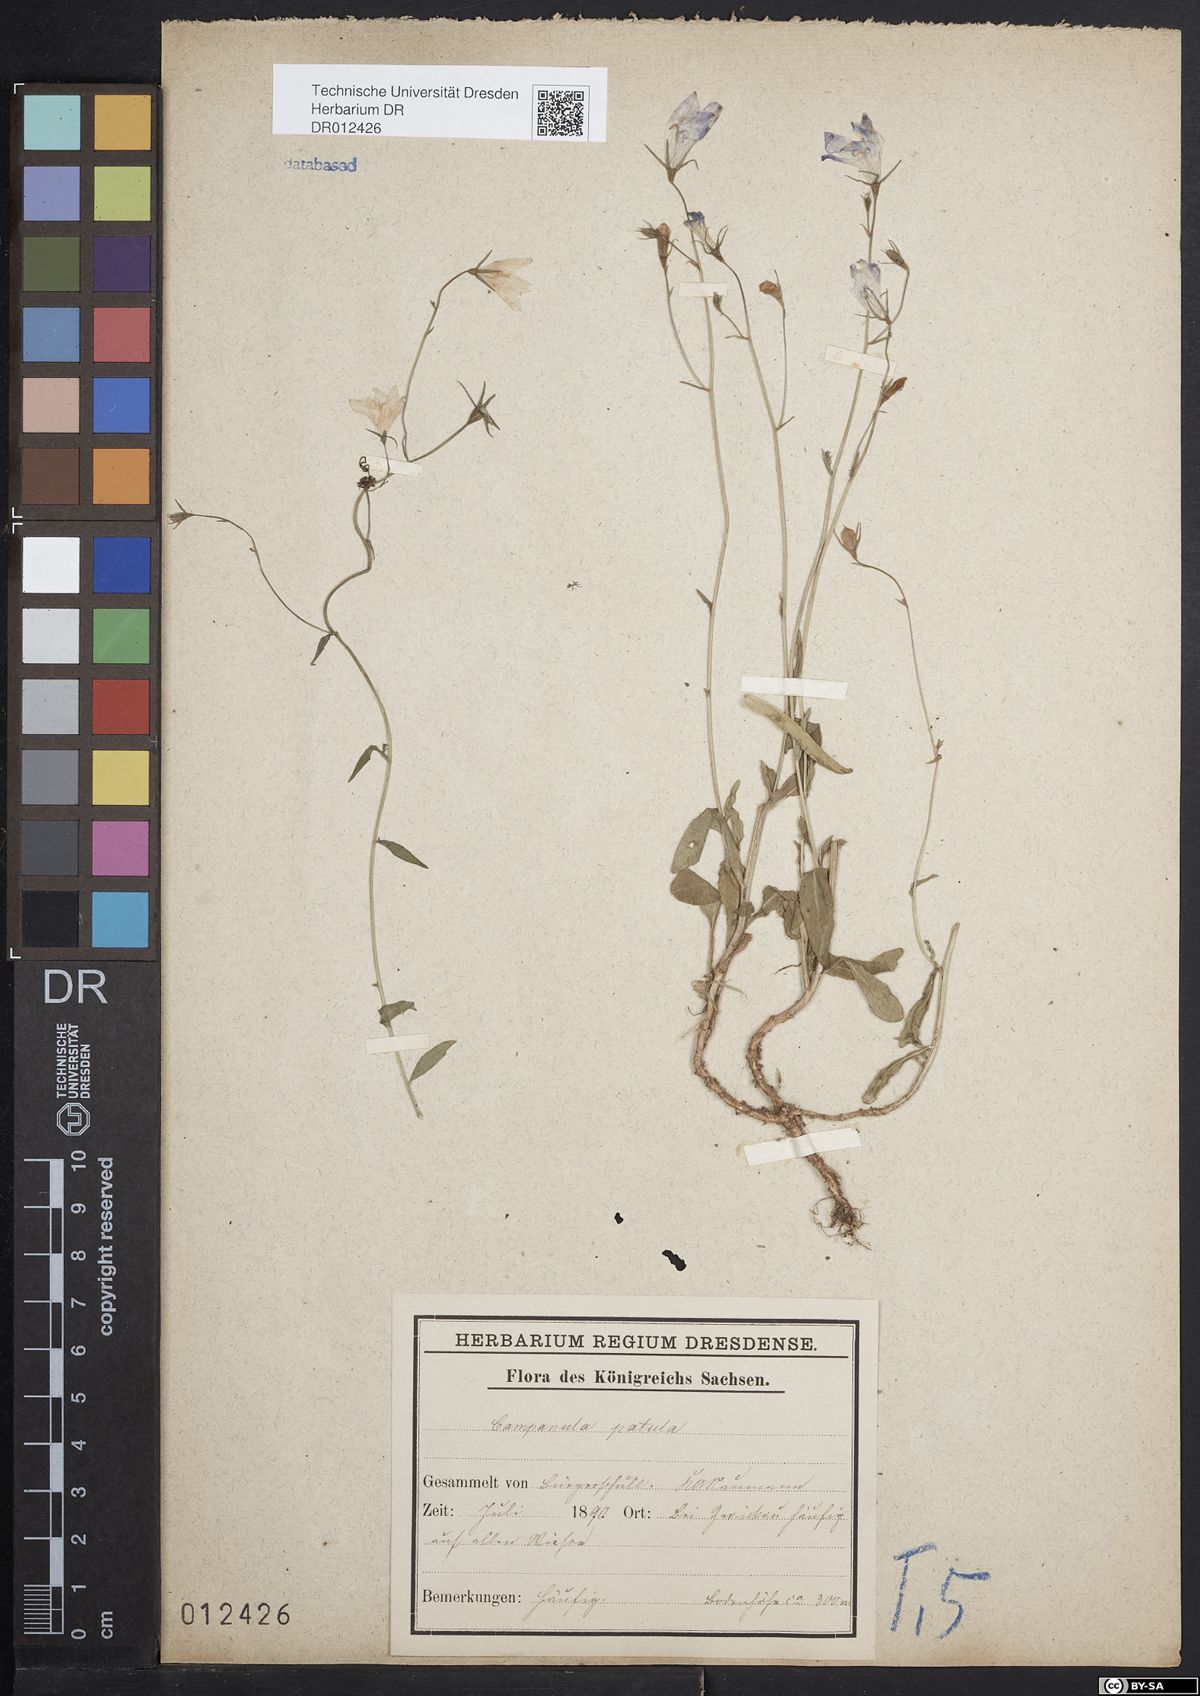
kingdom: Plantae
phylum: Tracheophyta
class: Magnoliopsida
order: Asterales
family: Campanulaceae
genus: Campanula
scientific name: Campanula patula
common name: Spreading bellflower
